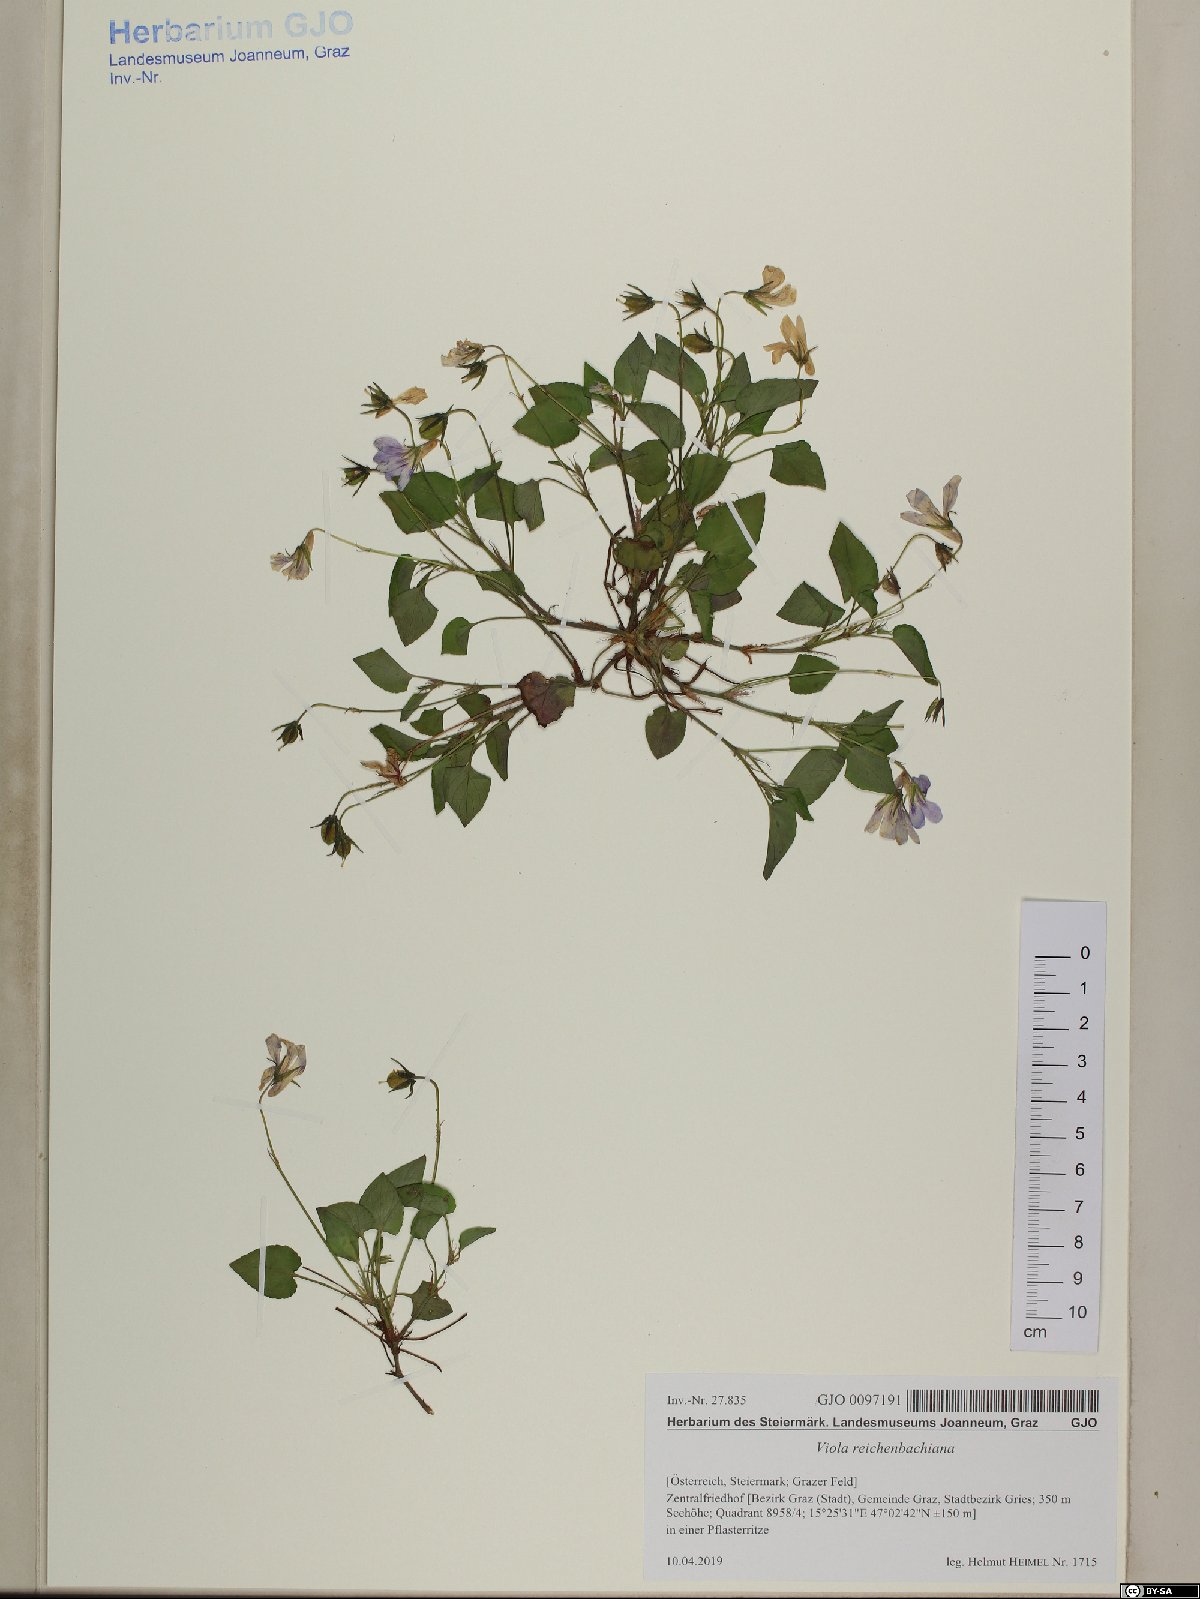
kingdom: Plantae
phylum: Tracheophyta
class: Magnoliopsida
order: Malpighiales
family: Violaceae
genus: Viola
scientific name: Viola reichenbachiana
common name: Early dog-violet
